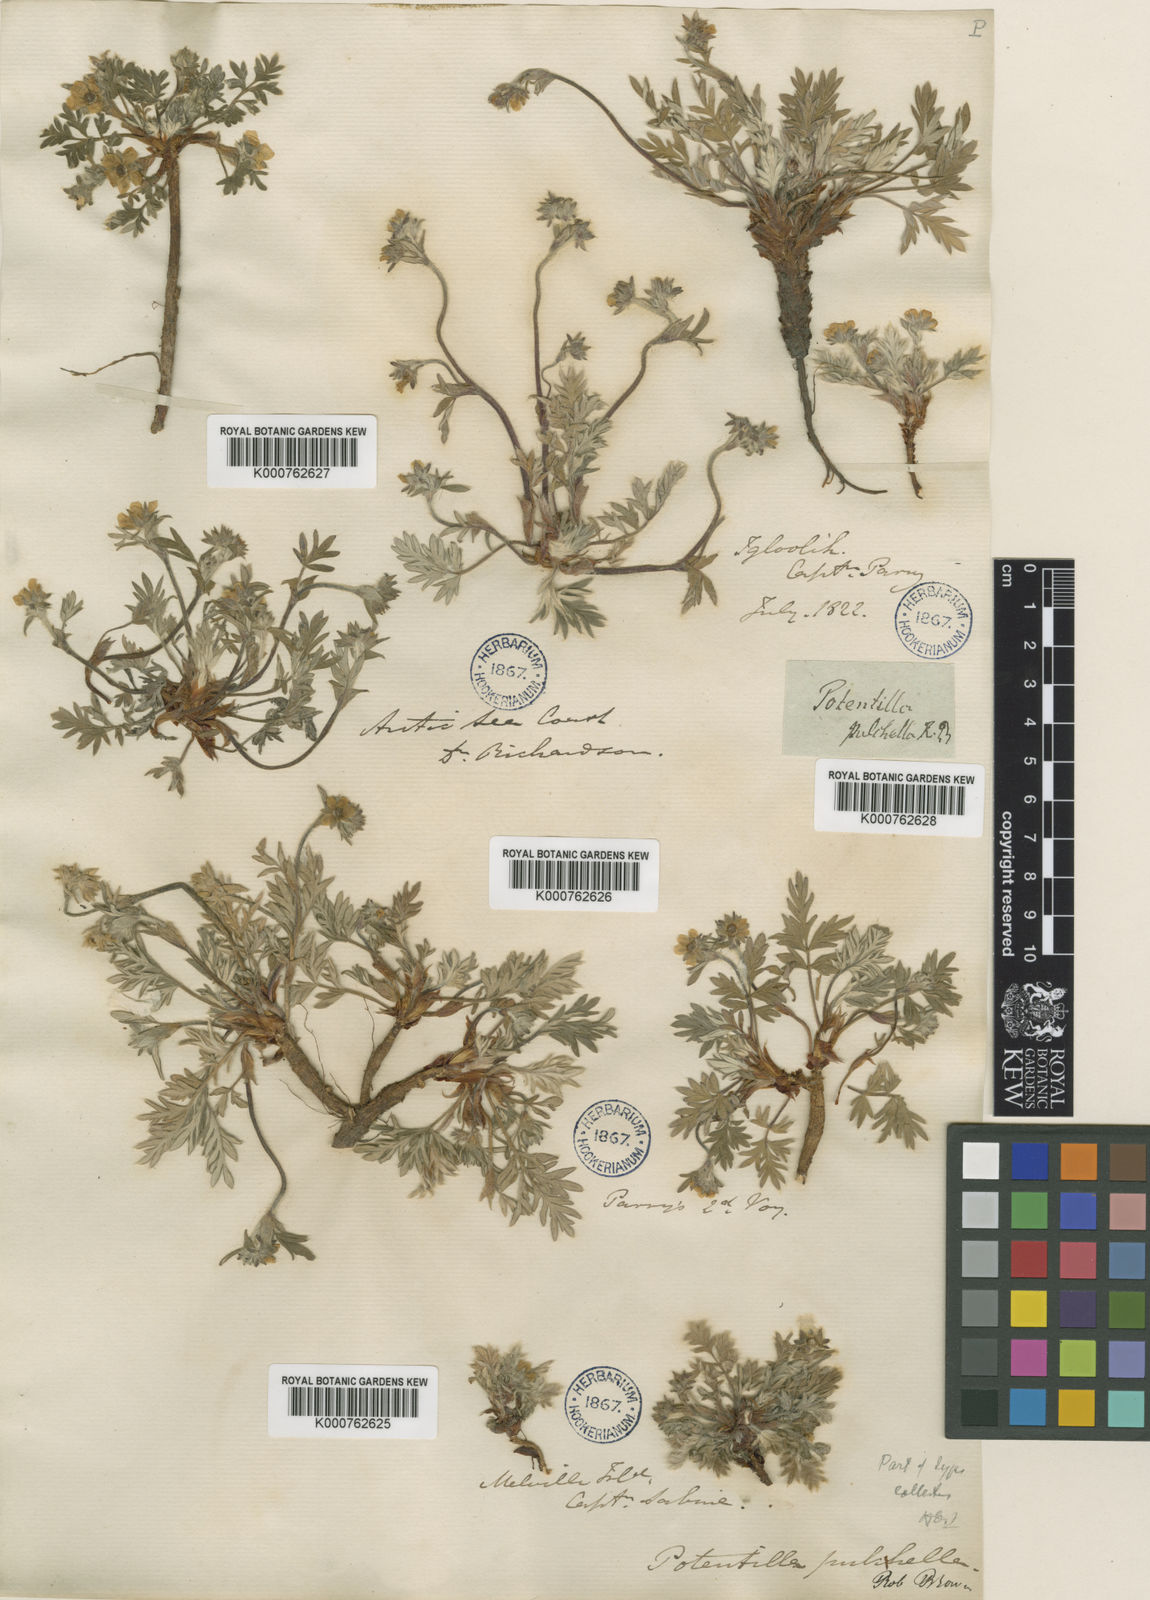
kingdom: Plantae
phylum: Tracheophyta
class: Magnoliopsida
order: Rosales
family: Rosaceae
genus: Potentilla
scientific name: Potentilla pulchella
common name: Pretty cinquefoil
